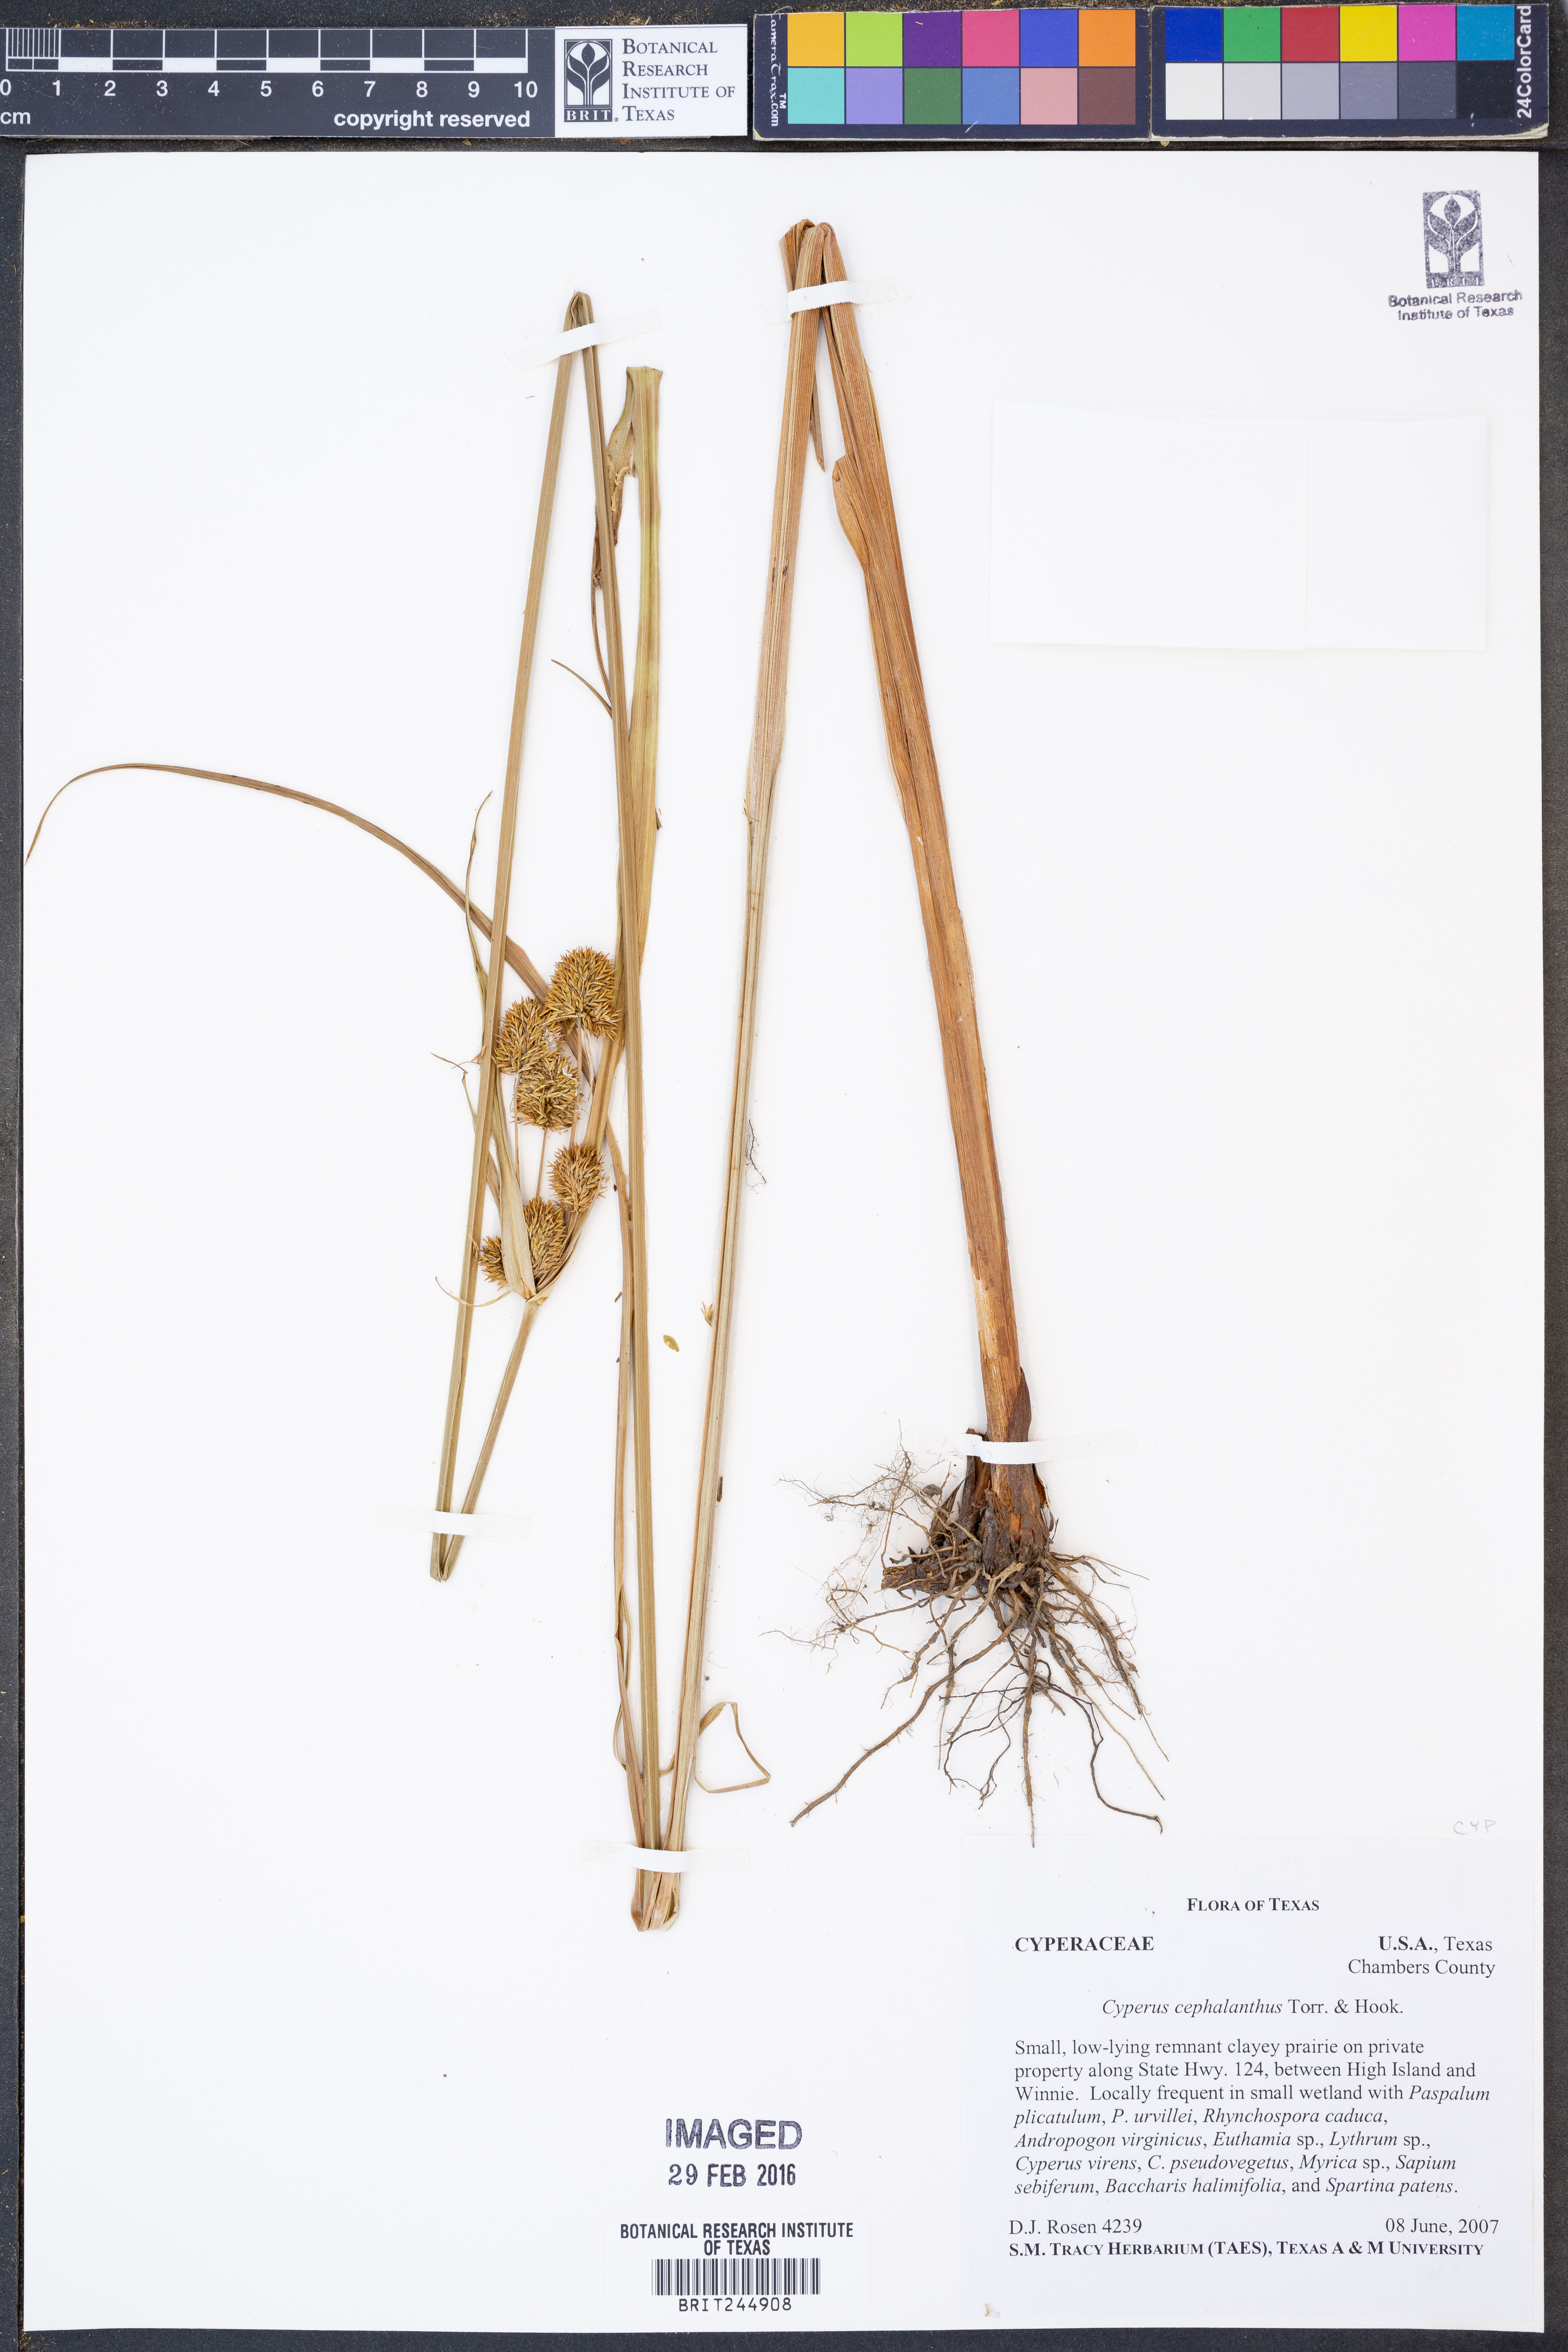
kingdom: Plantae
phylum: Tracheophyta
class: Liliopsida
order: Poales
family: Cyperaceae
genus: Cyperus
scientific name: Cyperus cephalanthus
